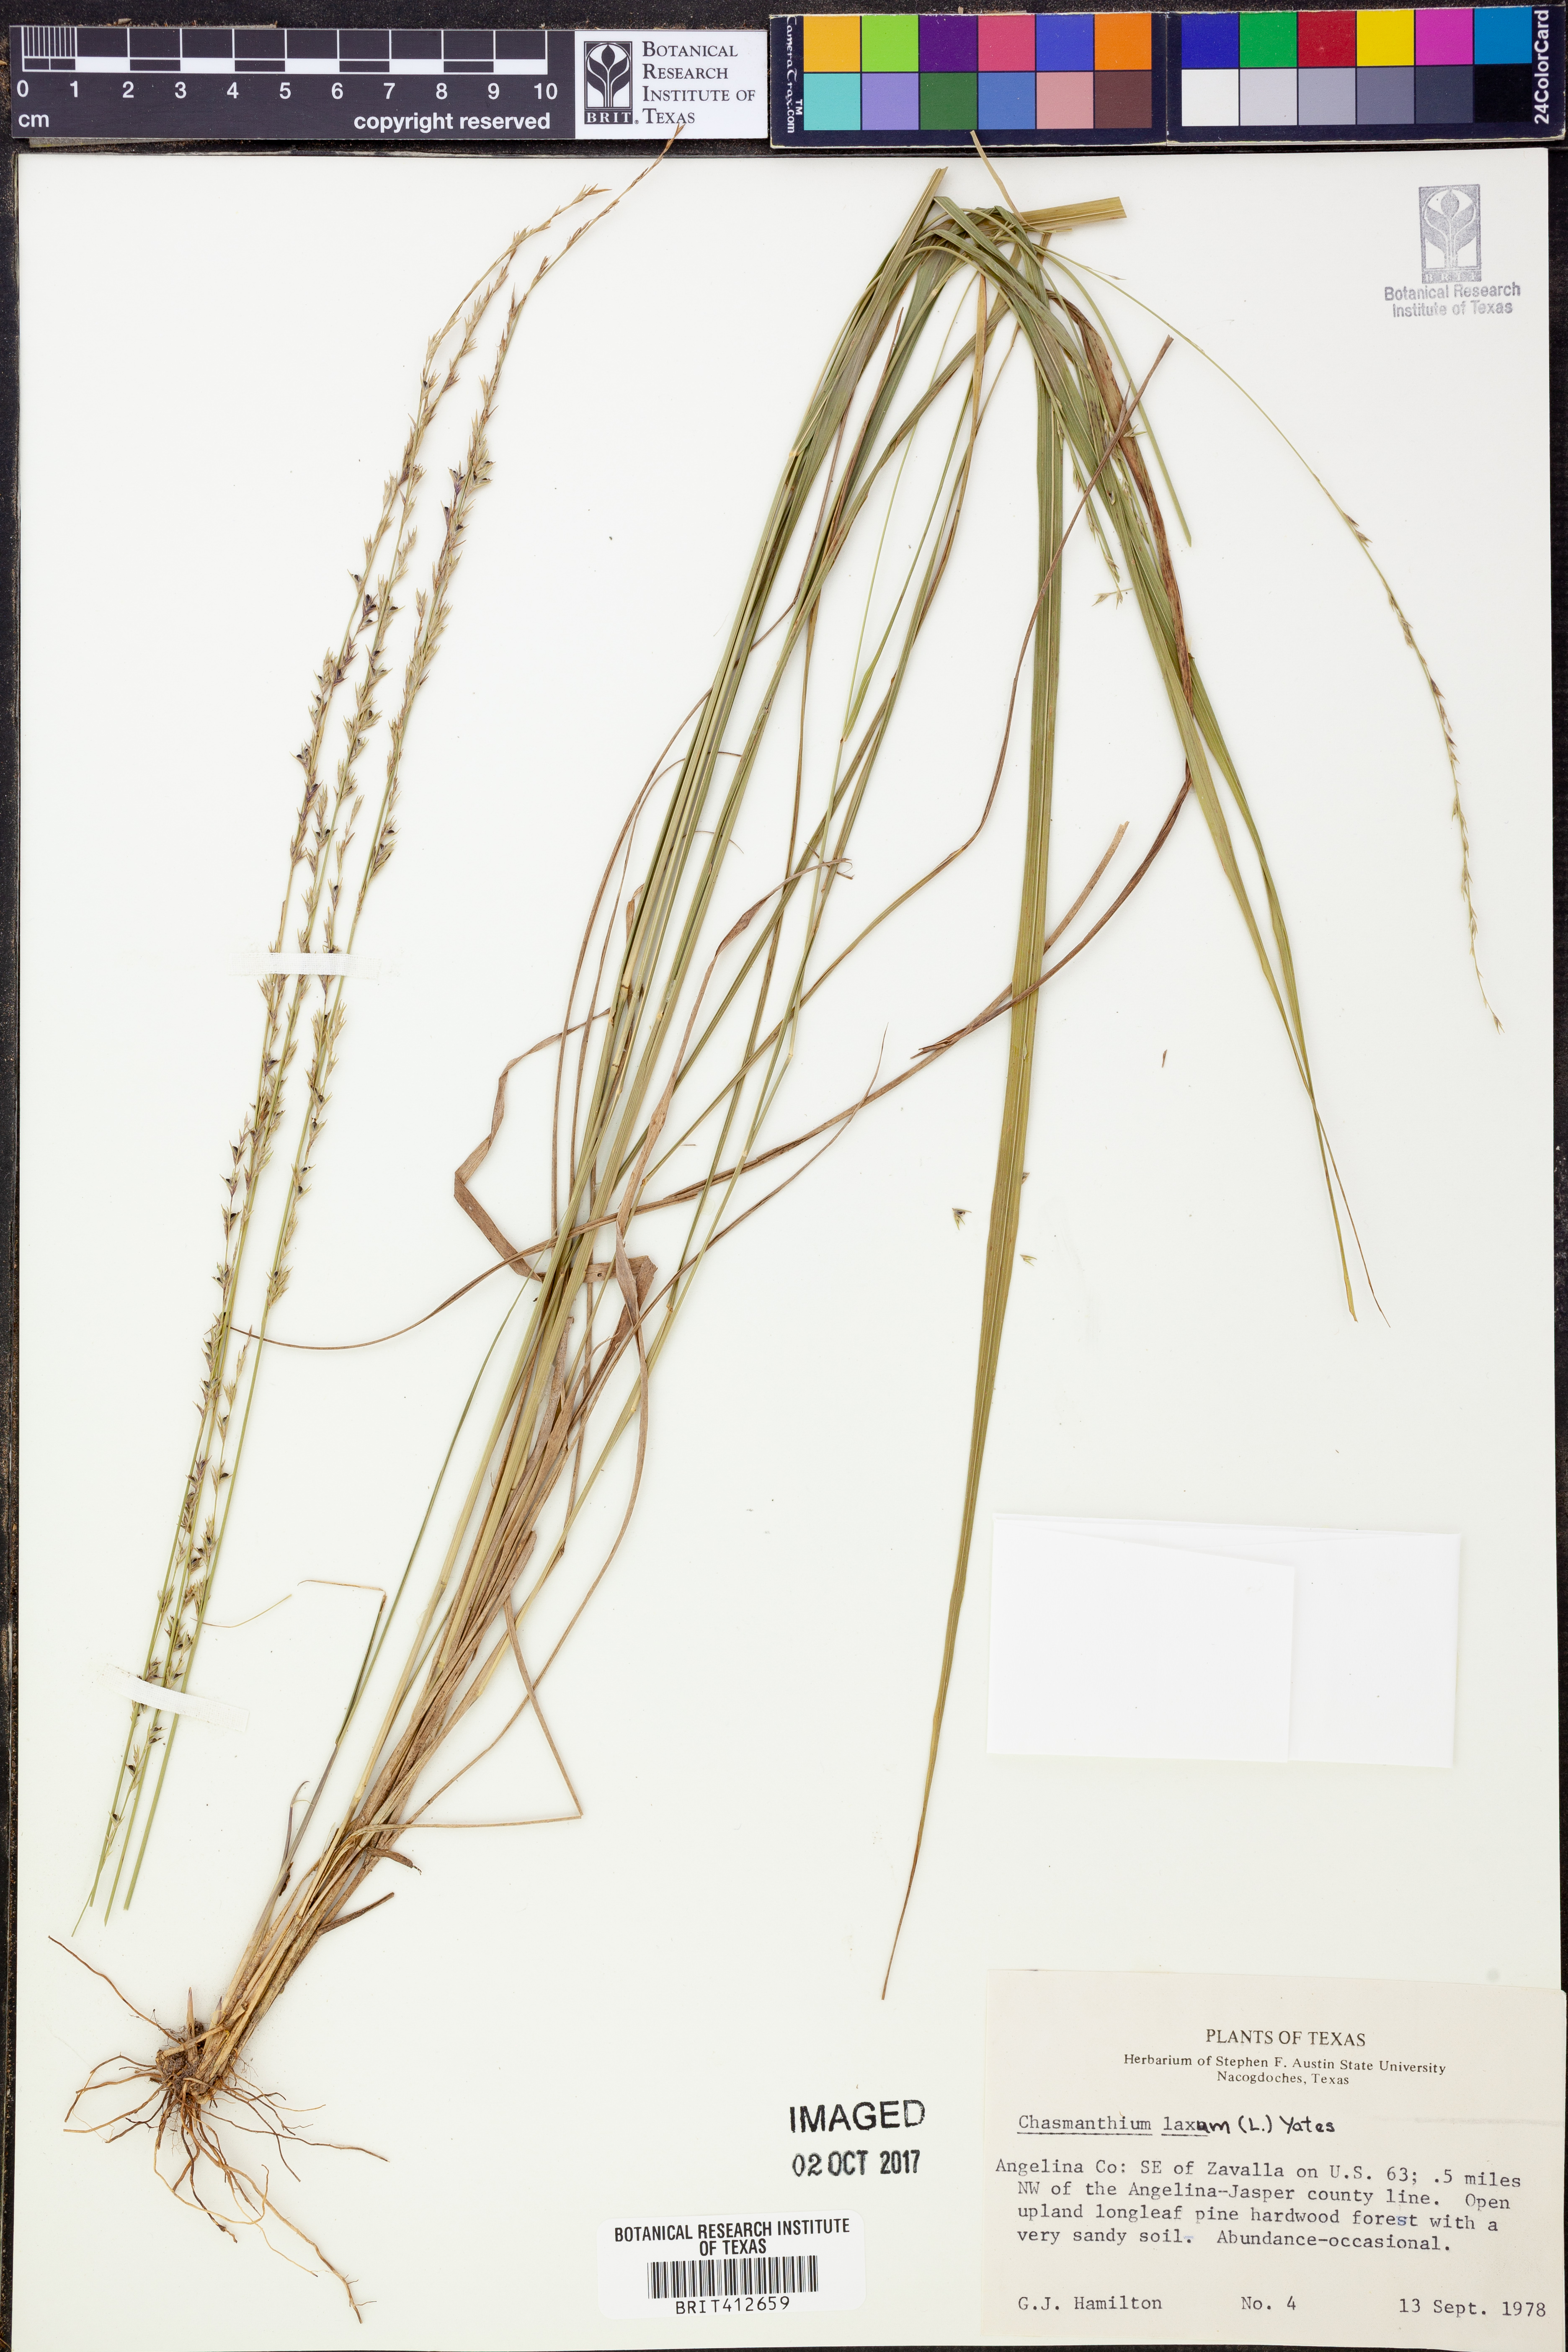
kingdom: Plantae
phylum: Tracheophyta
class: Liliopsida
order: Poales
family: Poaceae
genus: Chasmanthium
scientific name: Chasmanthium laxum
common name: Slender chasmanthium
